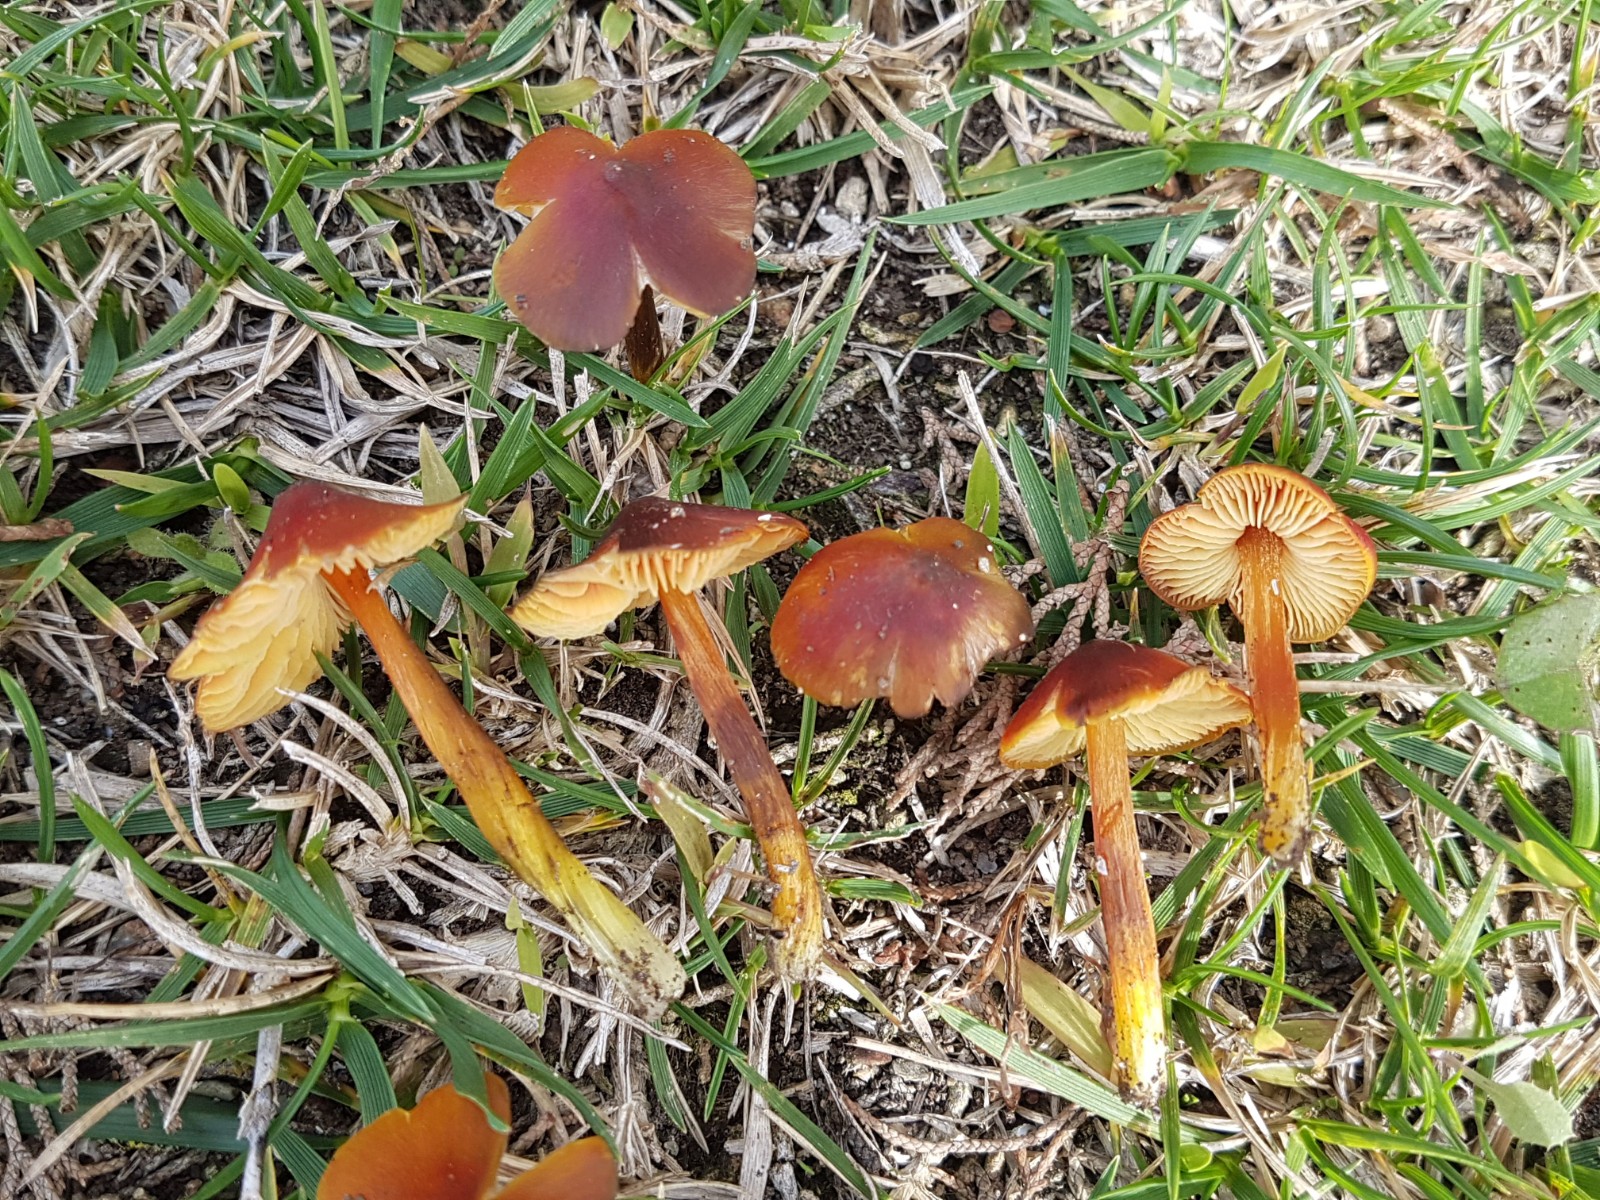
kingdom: Fungi
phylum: Basidiomycota
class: Agaricomycetes
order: Agaricales
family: Hygrophoraceae
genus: Hygrocybe
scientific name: Hygrocybe conica
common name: kegle-vokshat
